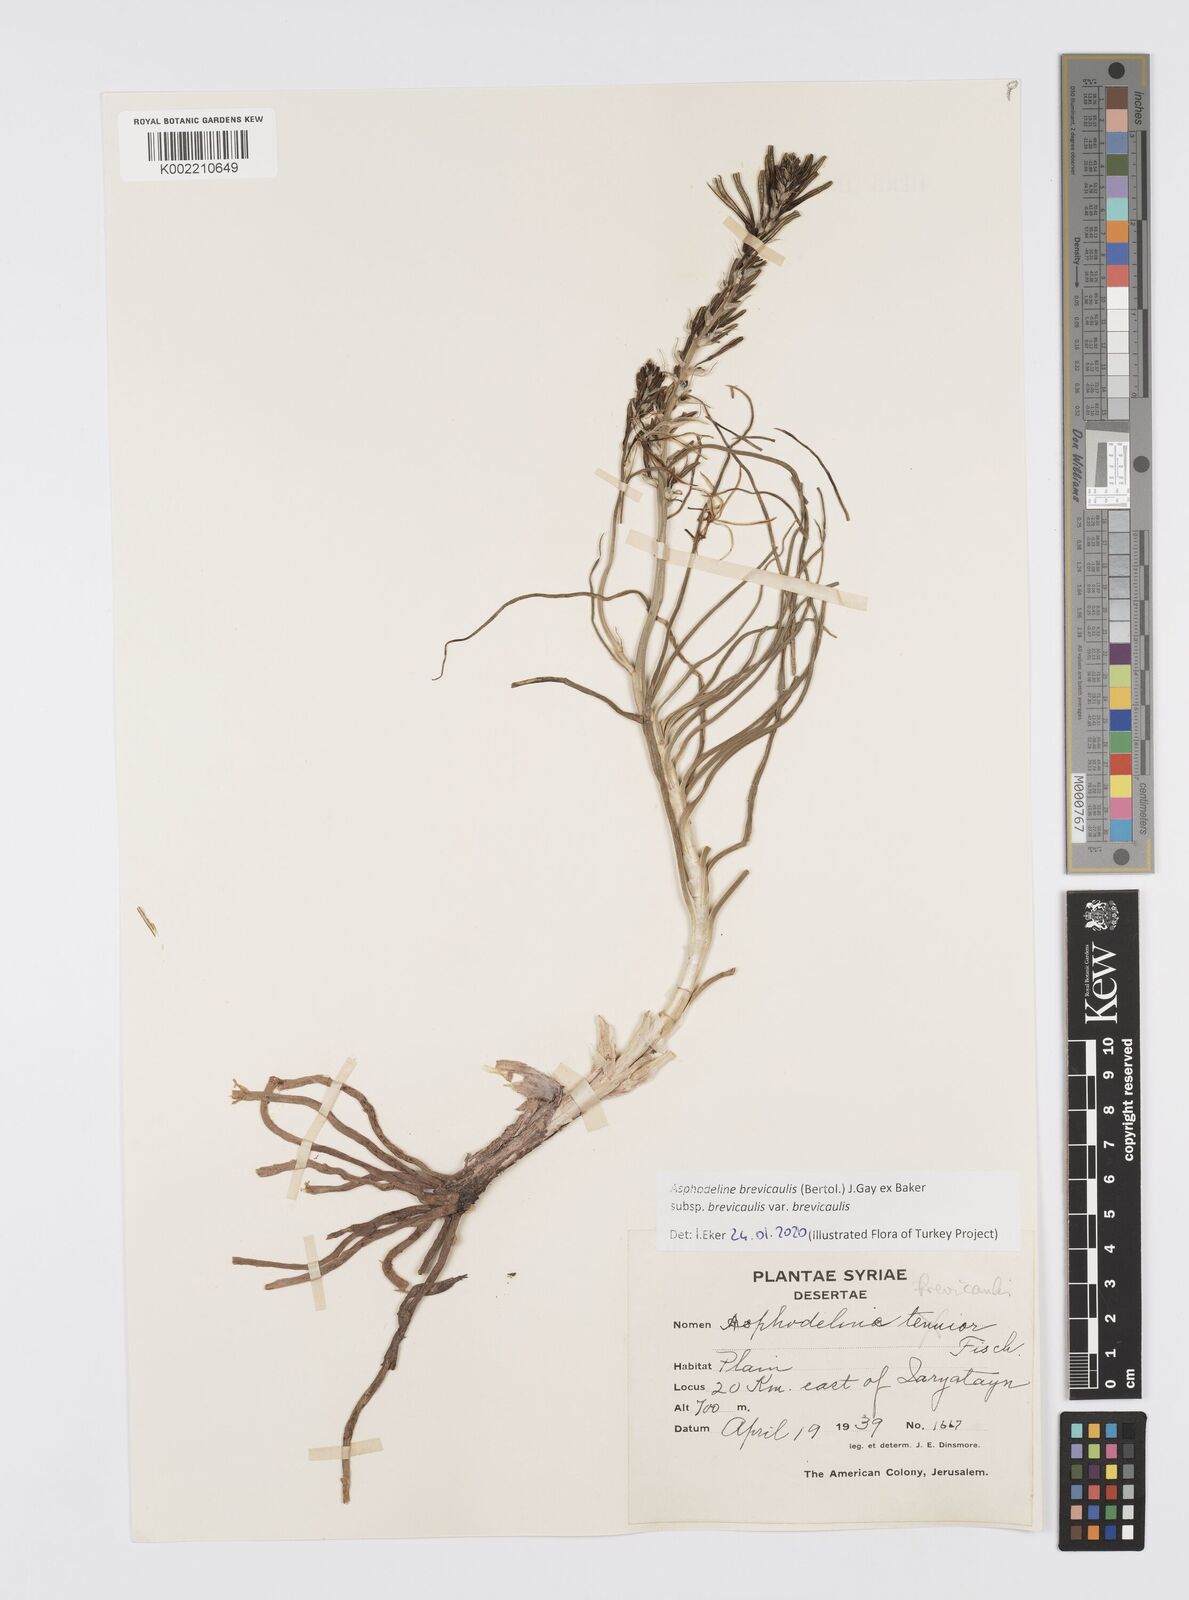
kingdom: Plantae
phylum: Tracheophyta
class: Liliopsida
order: Asparagales
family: Asphodelaceae
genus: Asphodeline
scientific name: Asphodeline brevicaulis
